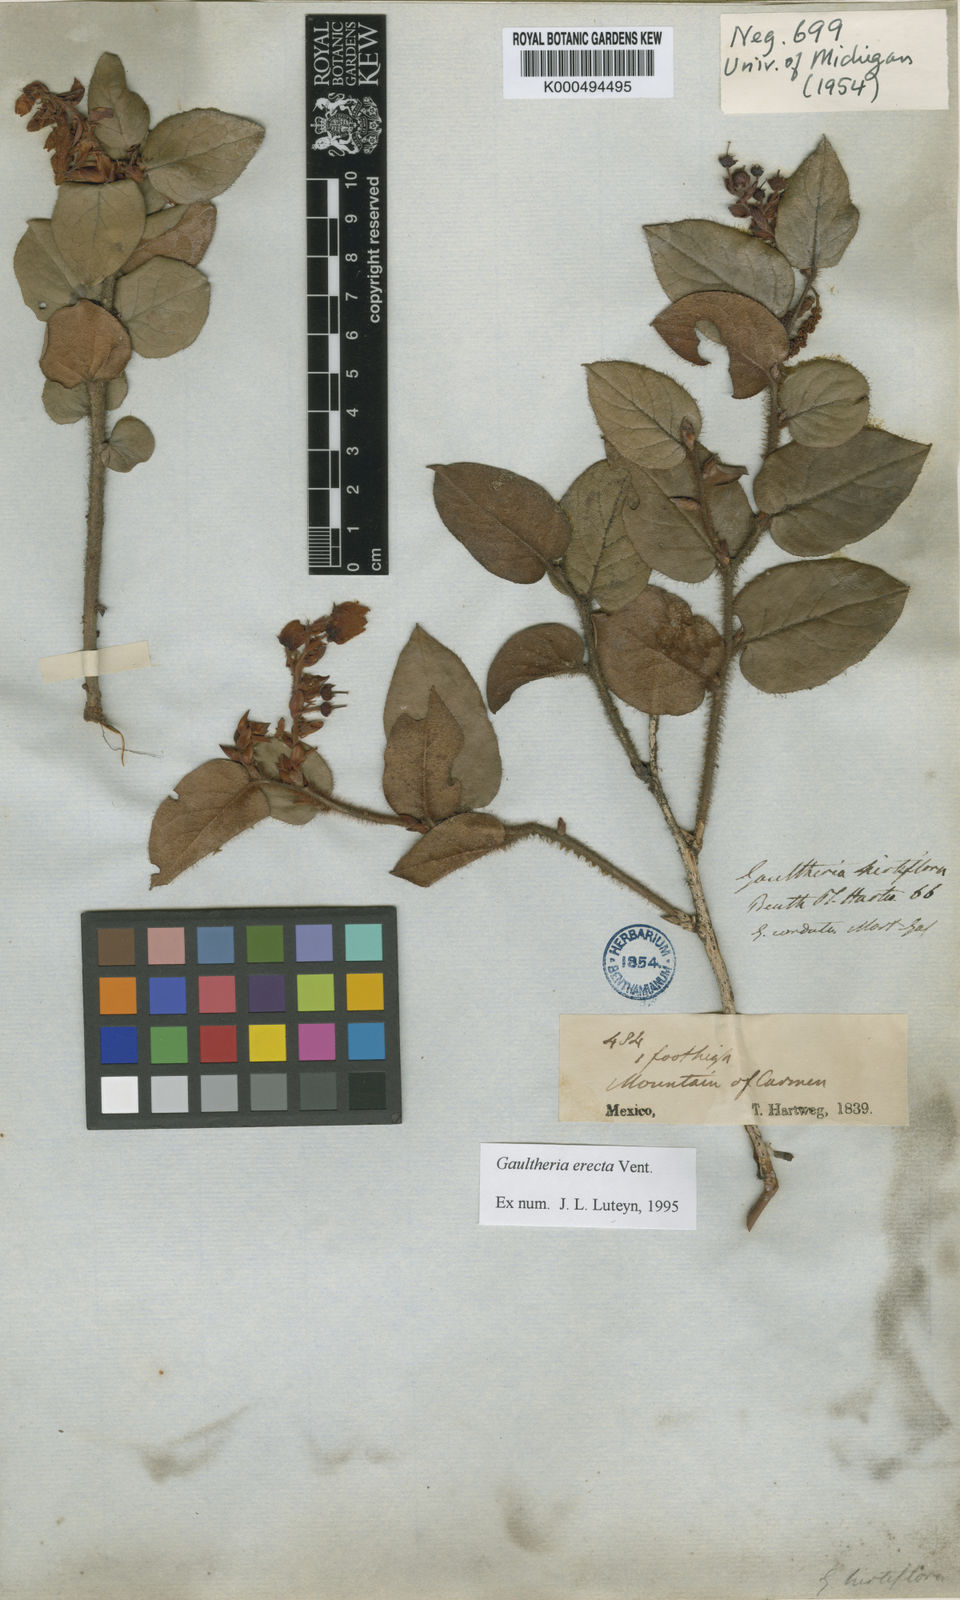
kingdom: Plantae
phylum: Tracheophyta
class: Magnoliopsida
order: Ericales
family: Ericaceae
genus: Gaultheria
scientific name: Gaultheria erecta
